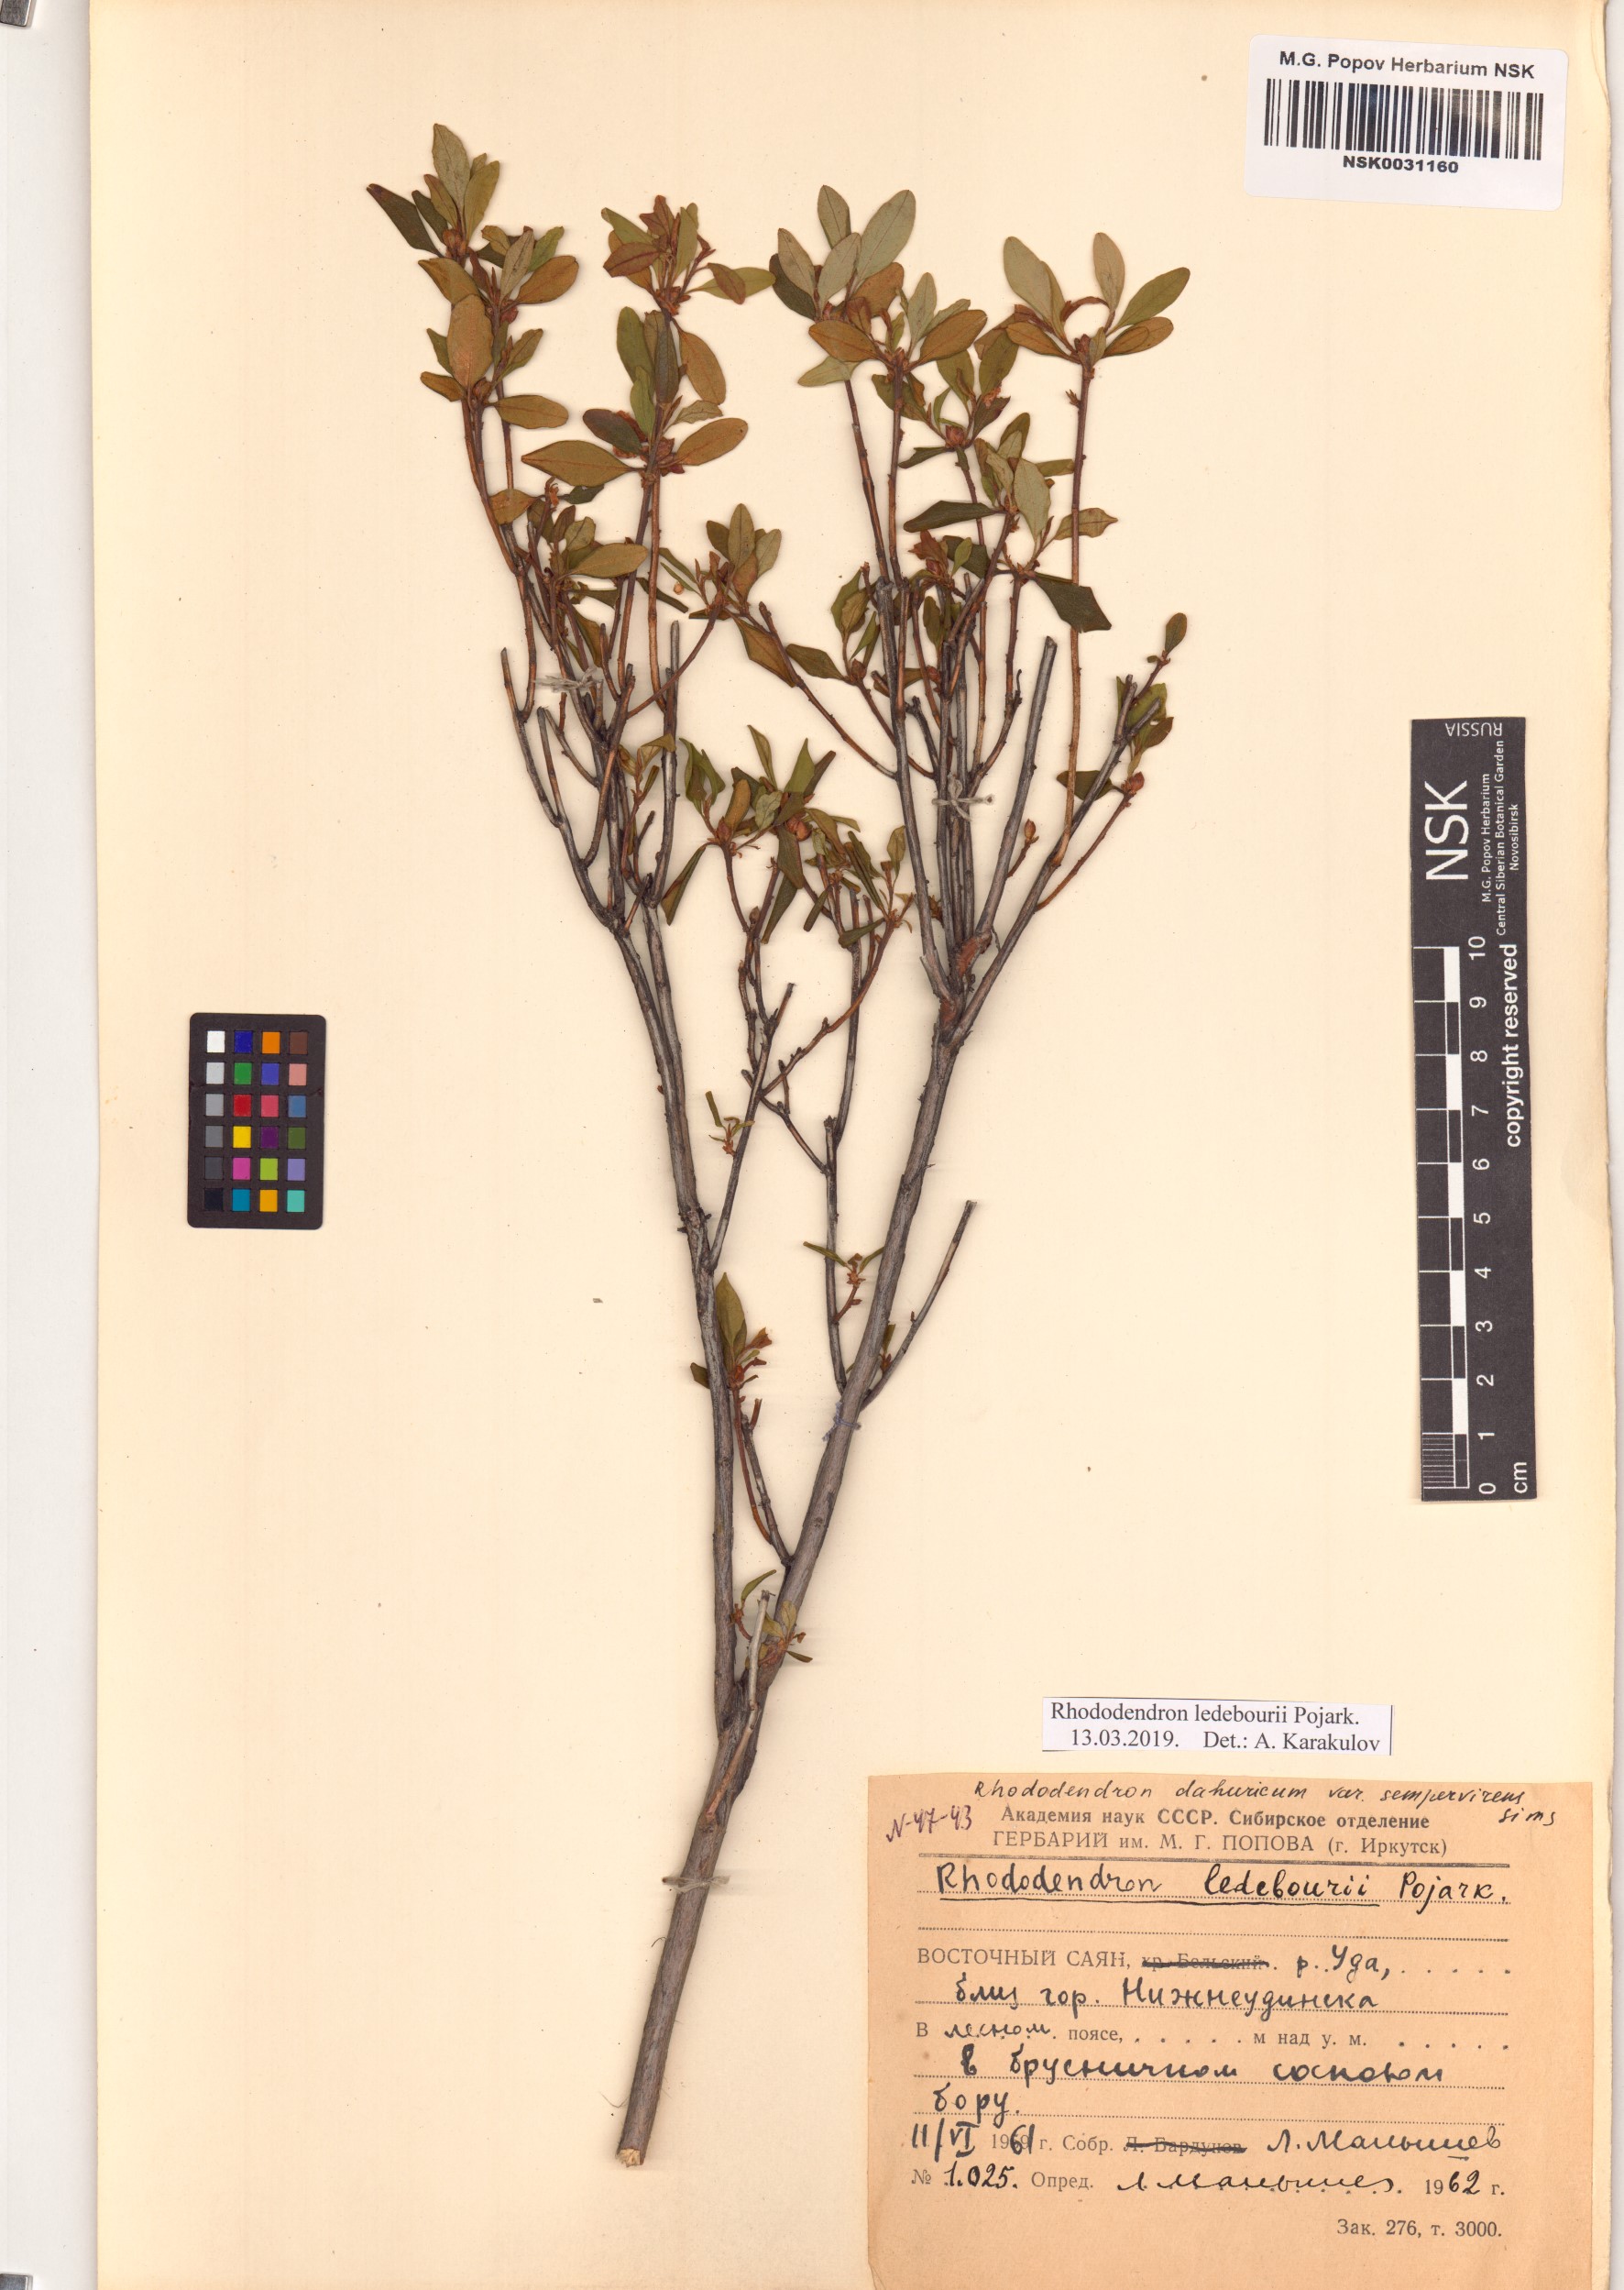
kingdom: Plantae
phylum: Tracheophyta
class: Magnoliopsida
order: Ericales
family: Ericaceae
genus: Rhododendron
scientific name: Rhododendron dauricum
